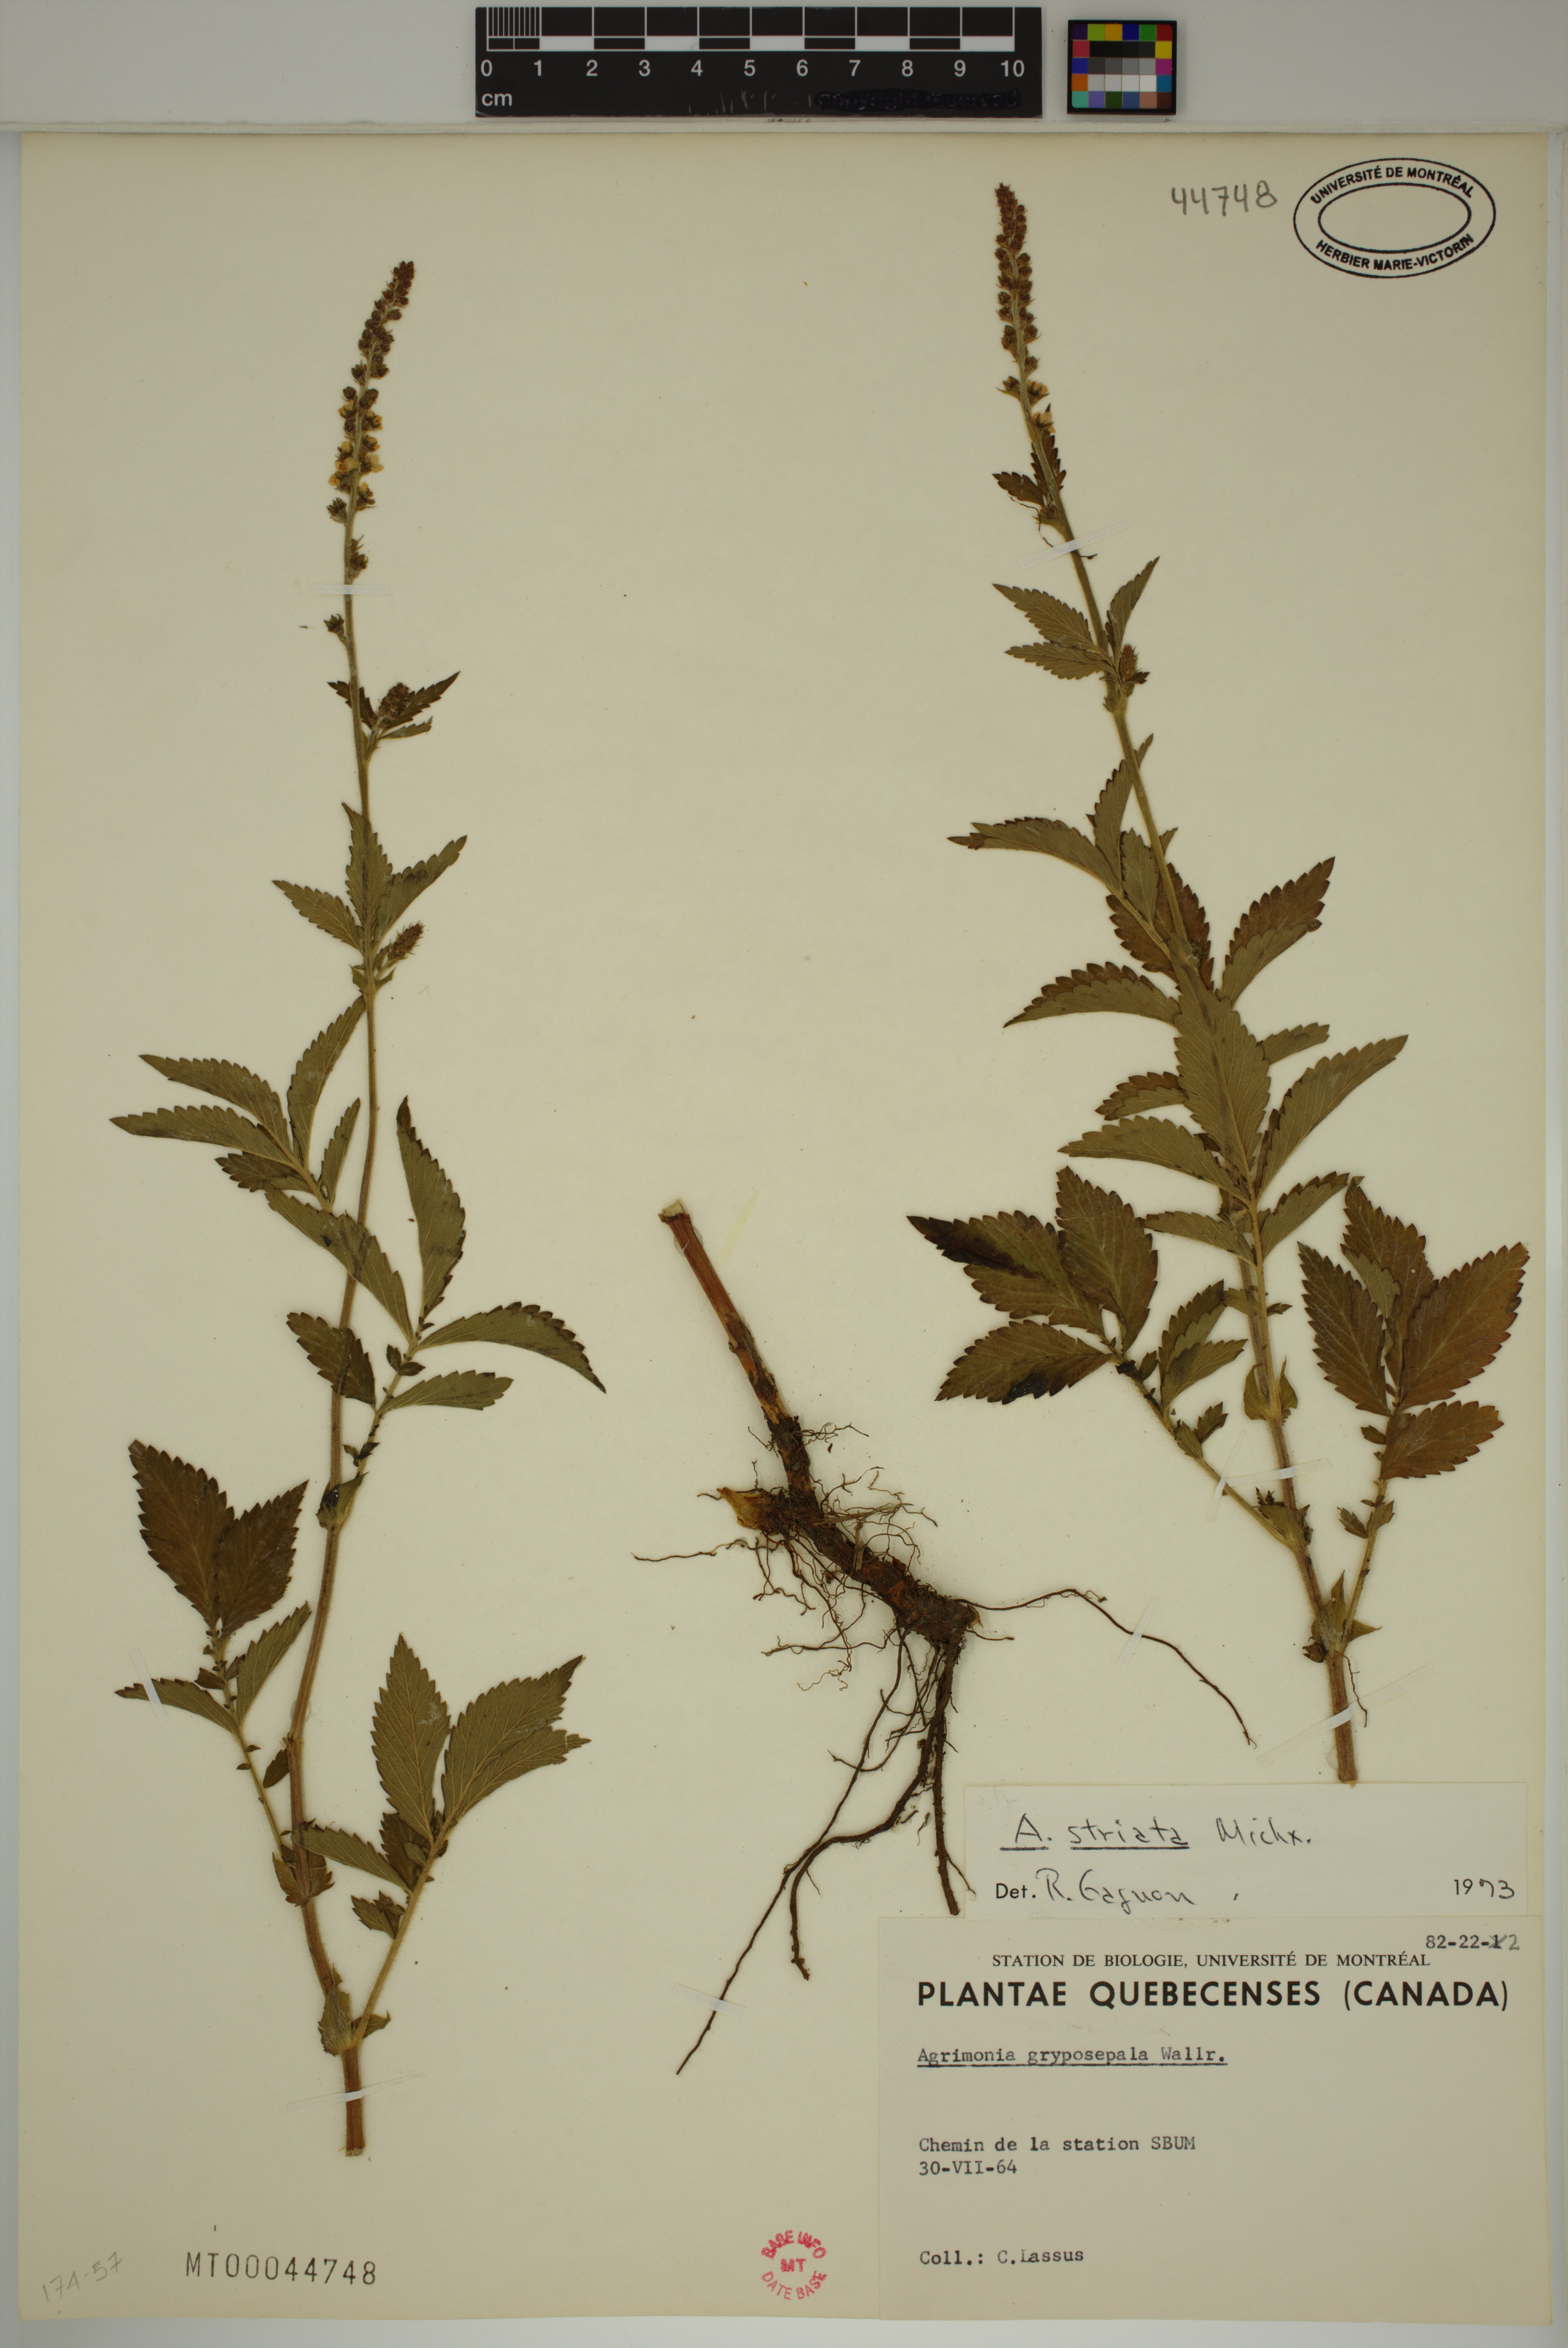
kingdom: Plantae
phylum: Tracheophyta
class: Magnoliopsida
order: Rosales
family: Rosaceae
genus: Agrimonia
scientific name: Agrimonia striata
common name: Britton's agrimony
